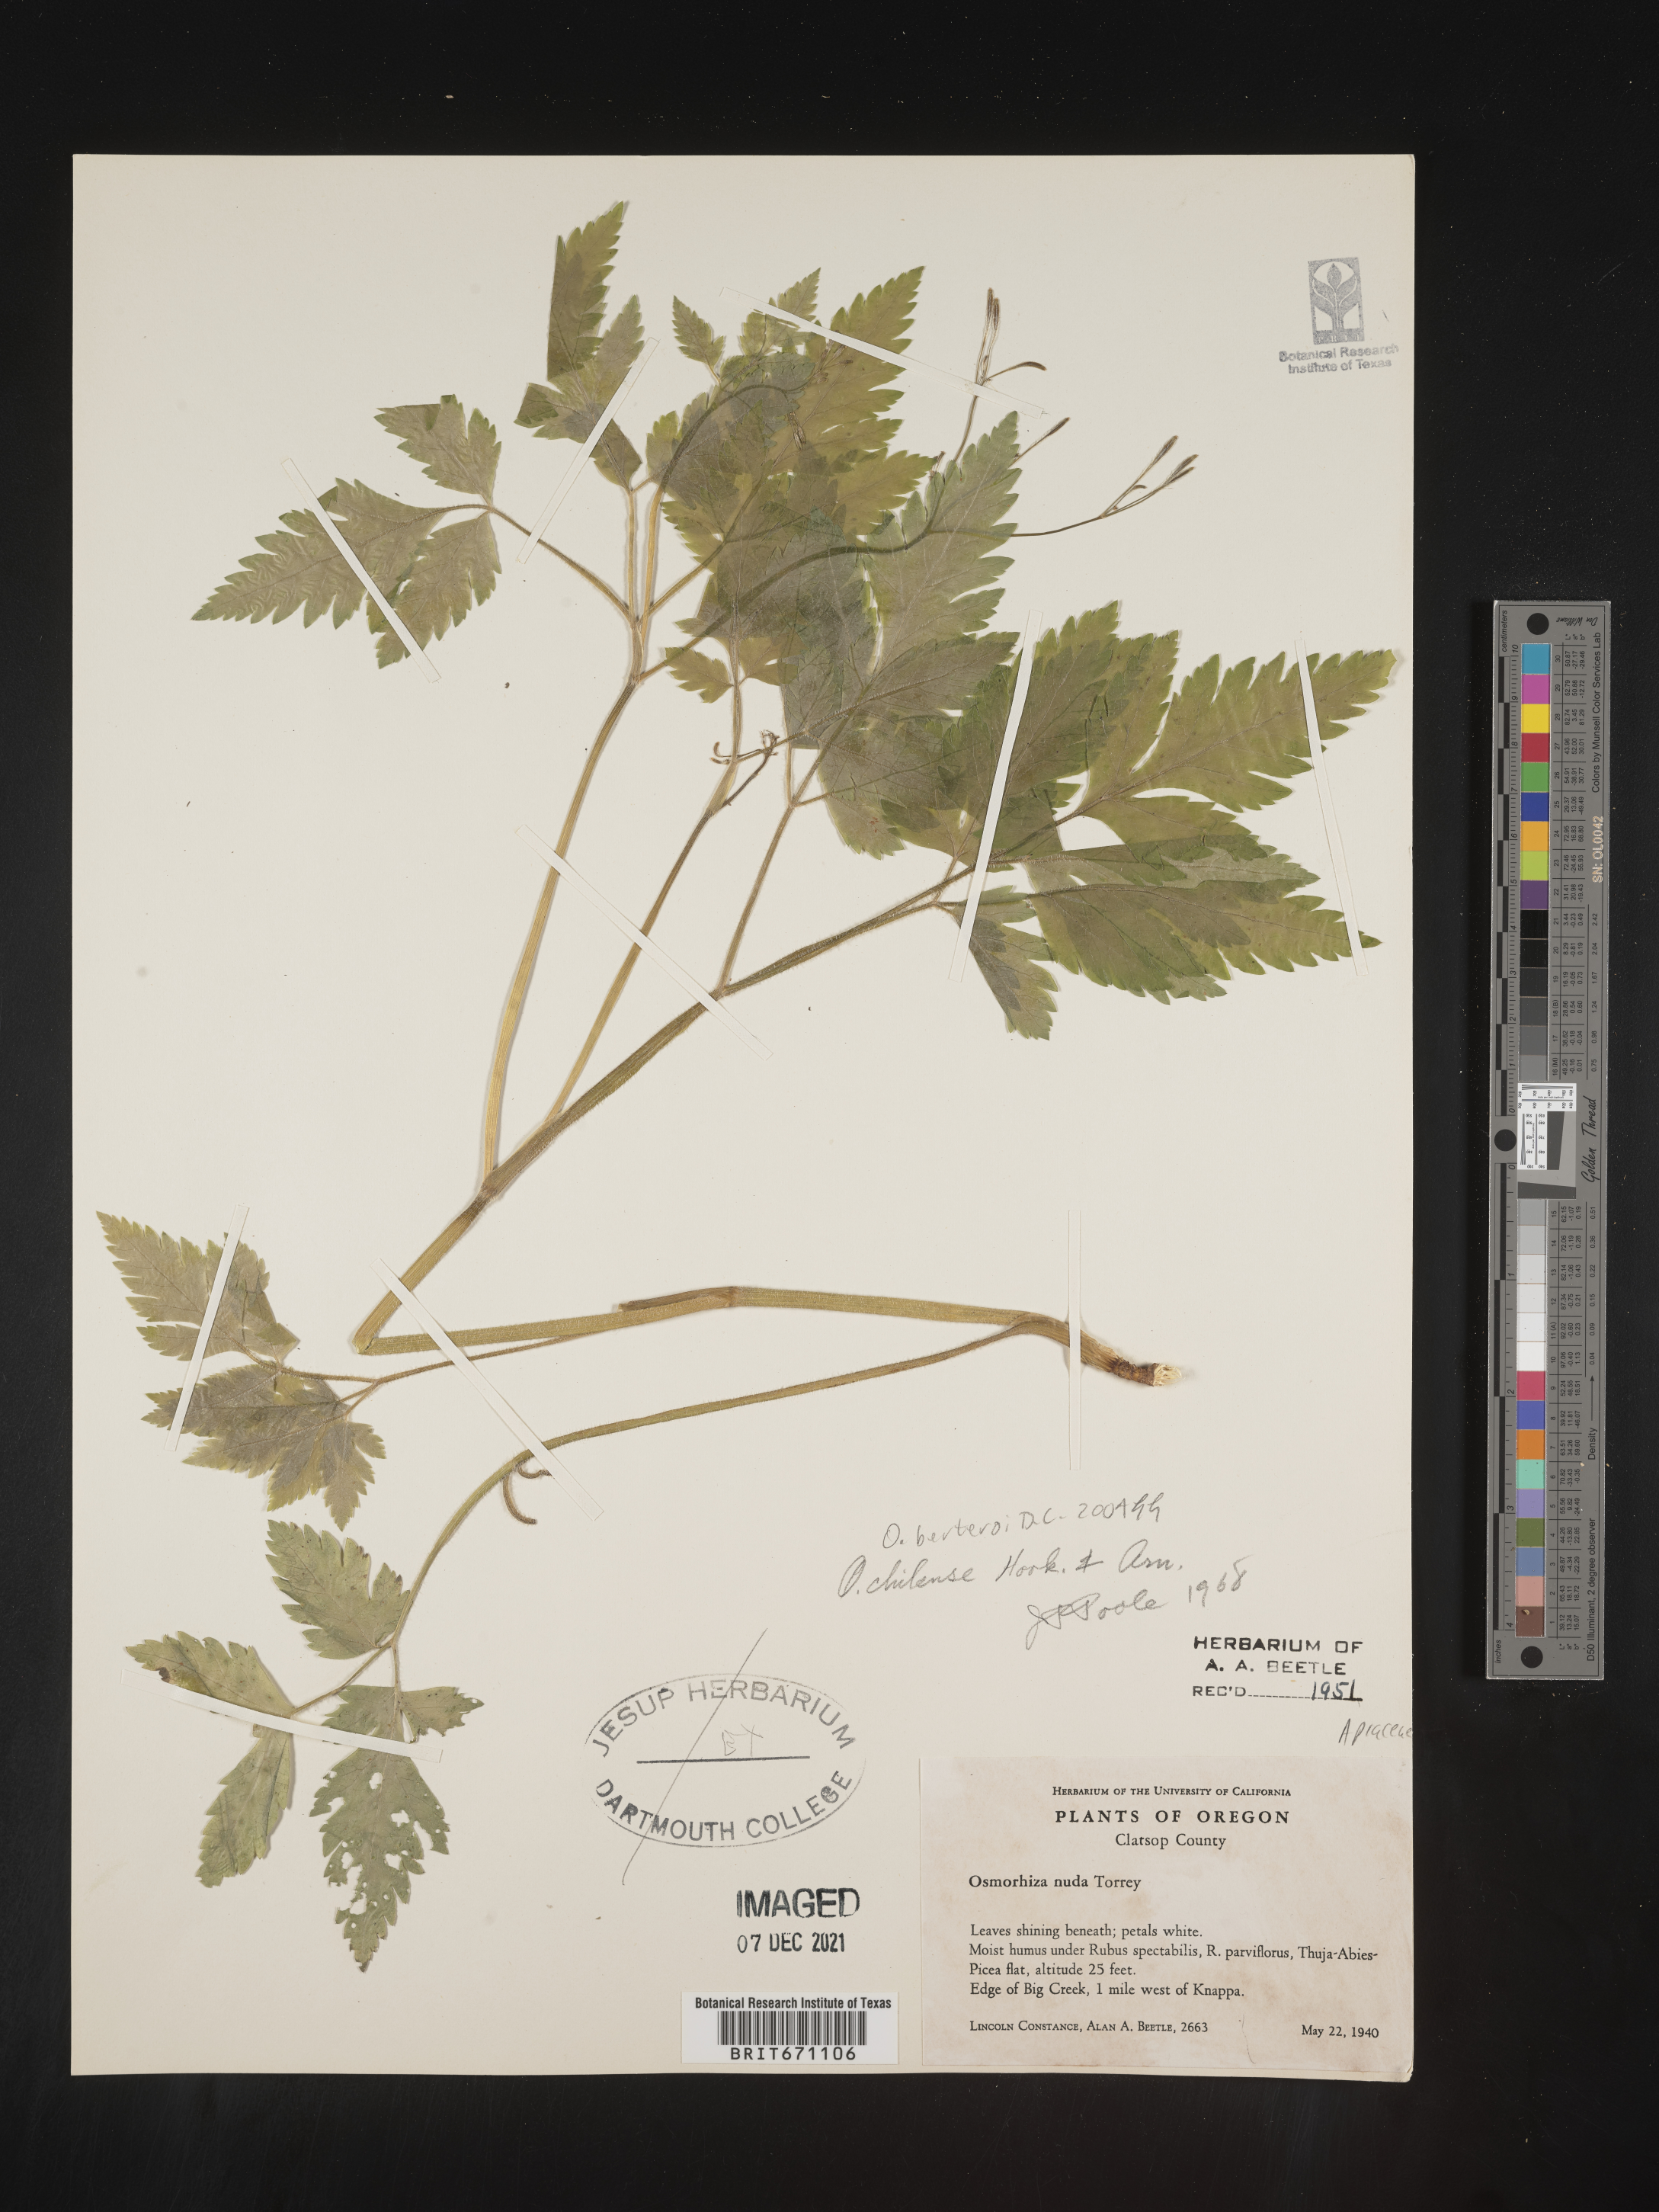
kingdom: Plantae
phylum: Tracheophyta
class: Magnoliopsida
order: Apiales
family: Apiaceae
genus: Osmorhiza
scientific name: Osmorhiza berteroi
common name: Mountain sweet cicely
